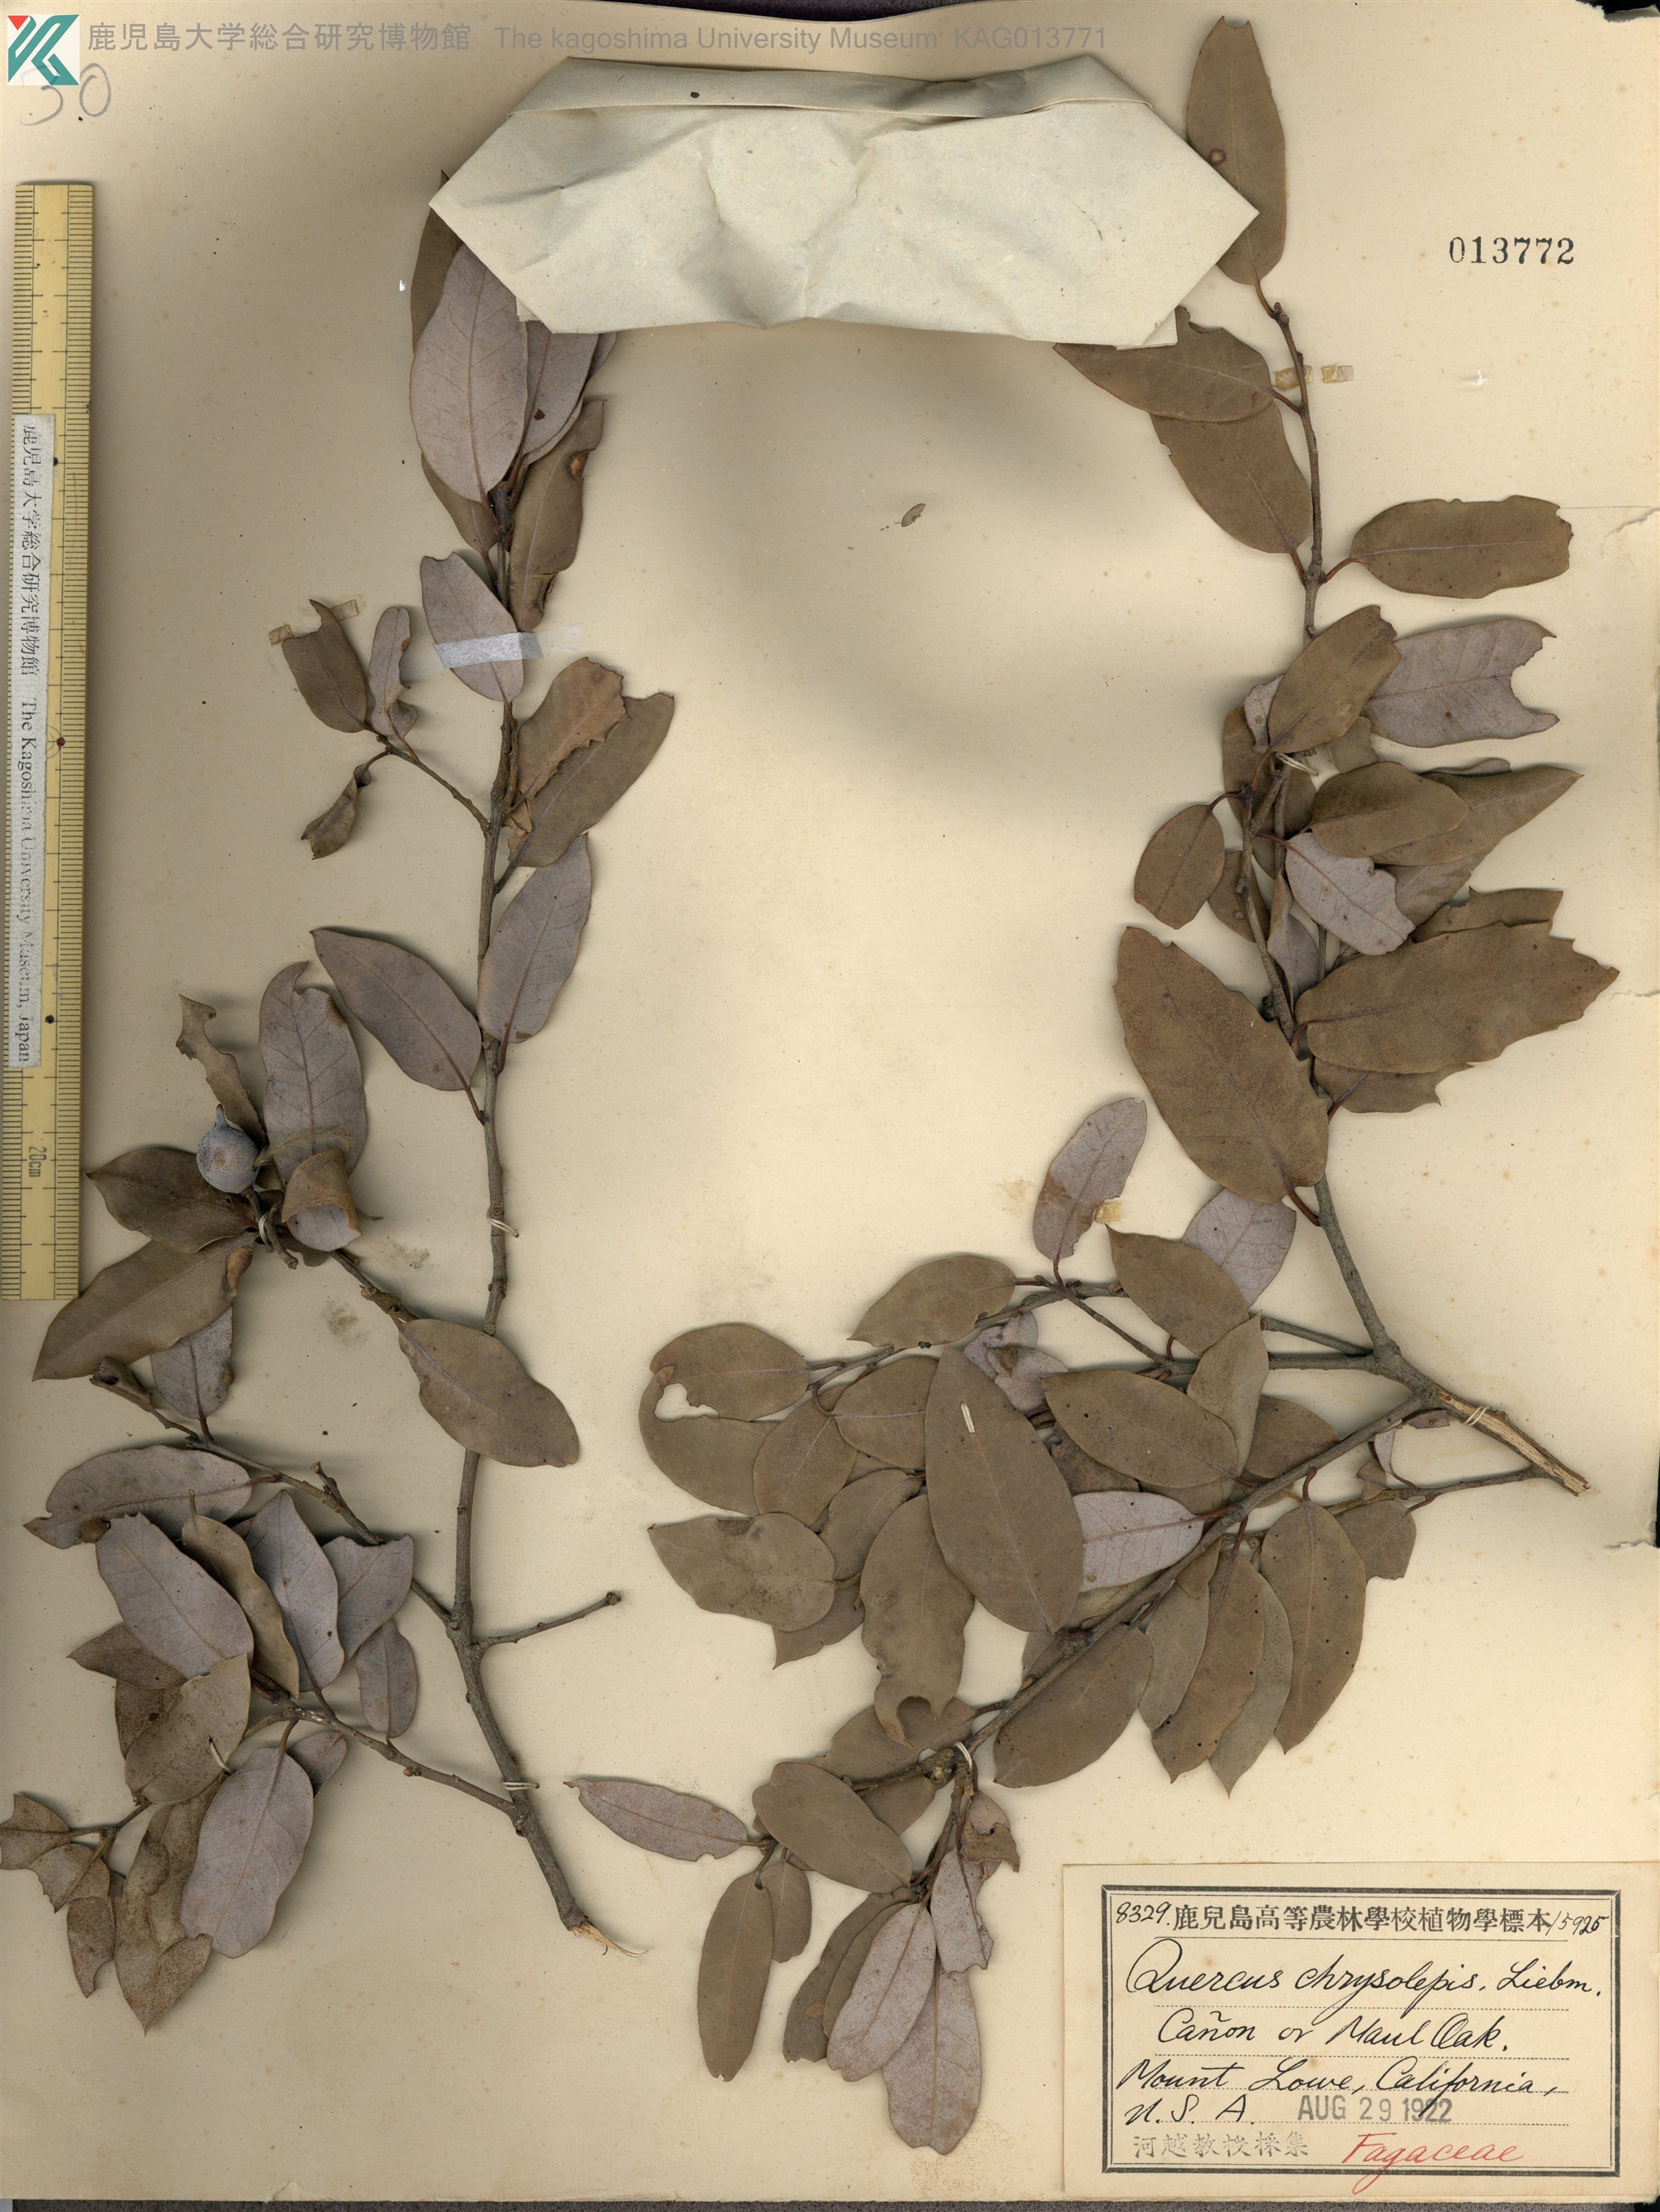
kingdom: Plantae
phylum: Tracheophyta
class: Magnoliopsida
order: Fagales
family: Fagaceae
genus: Quercus
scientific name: Quercus chrysolepis
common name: Canyon live oak
